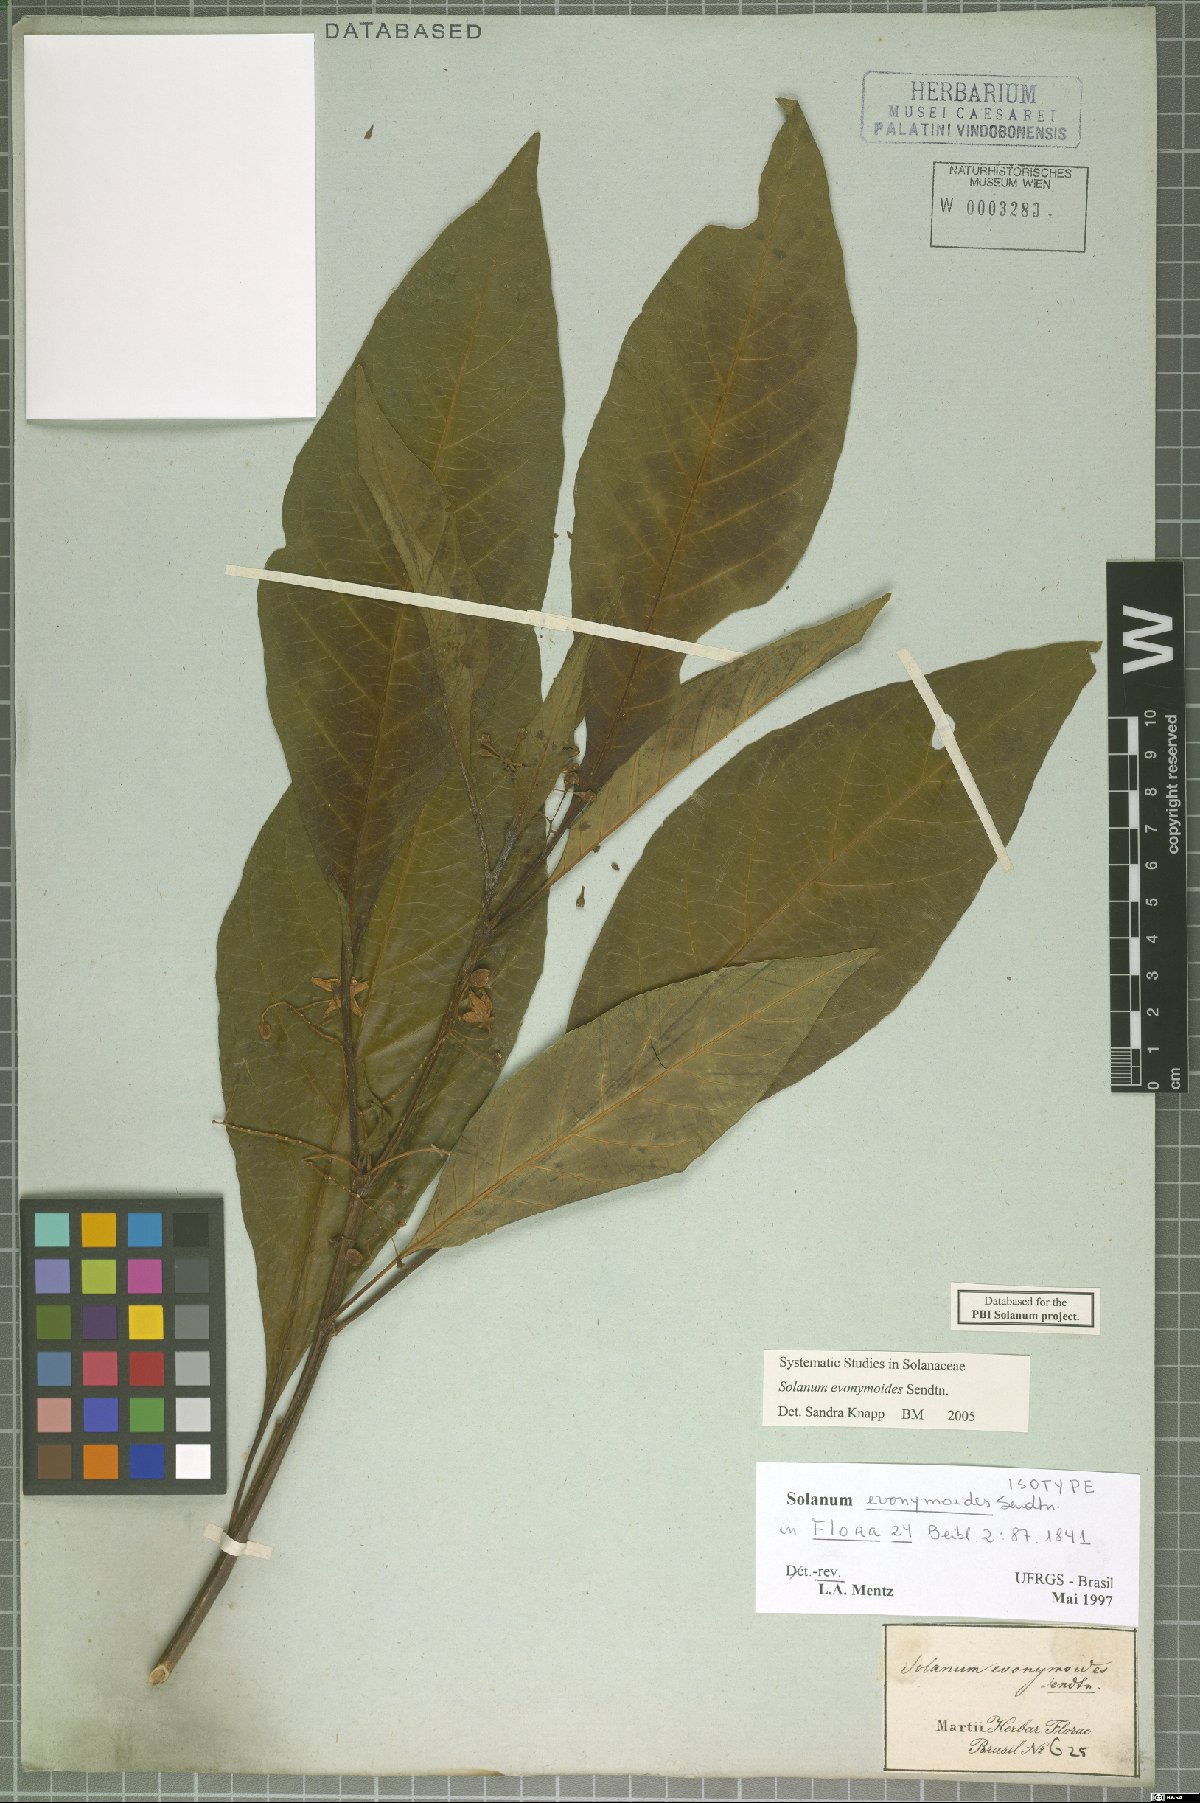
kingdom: Plantae
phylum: Tracheophyta
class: Magnoliopsida
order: Solanales
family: Solanaceae
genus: Solanum
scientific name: Solanum evonymoides
